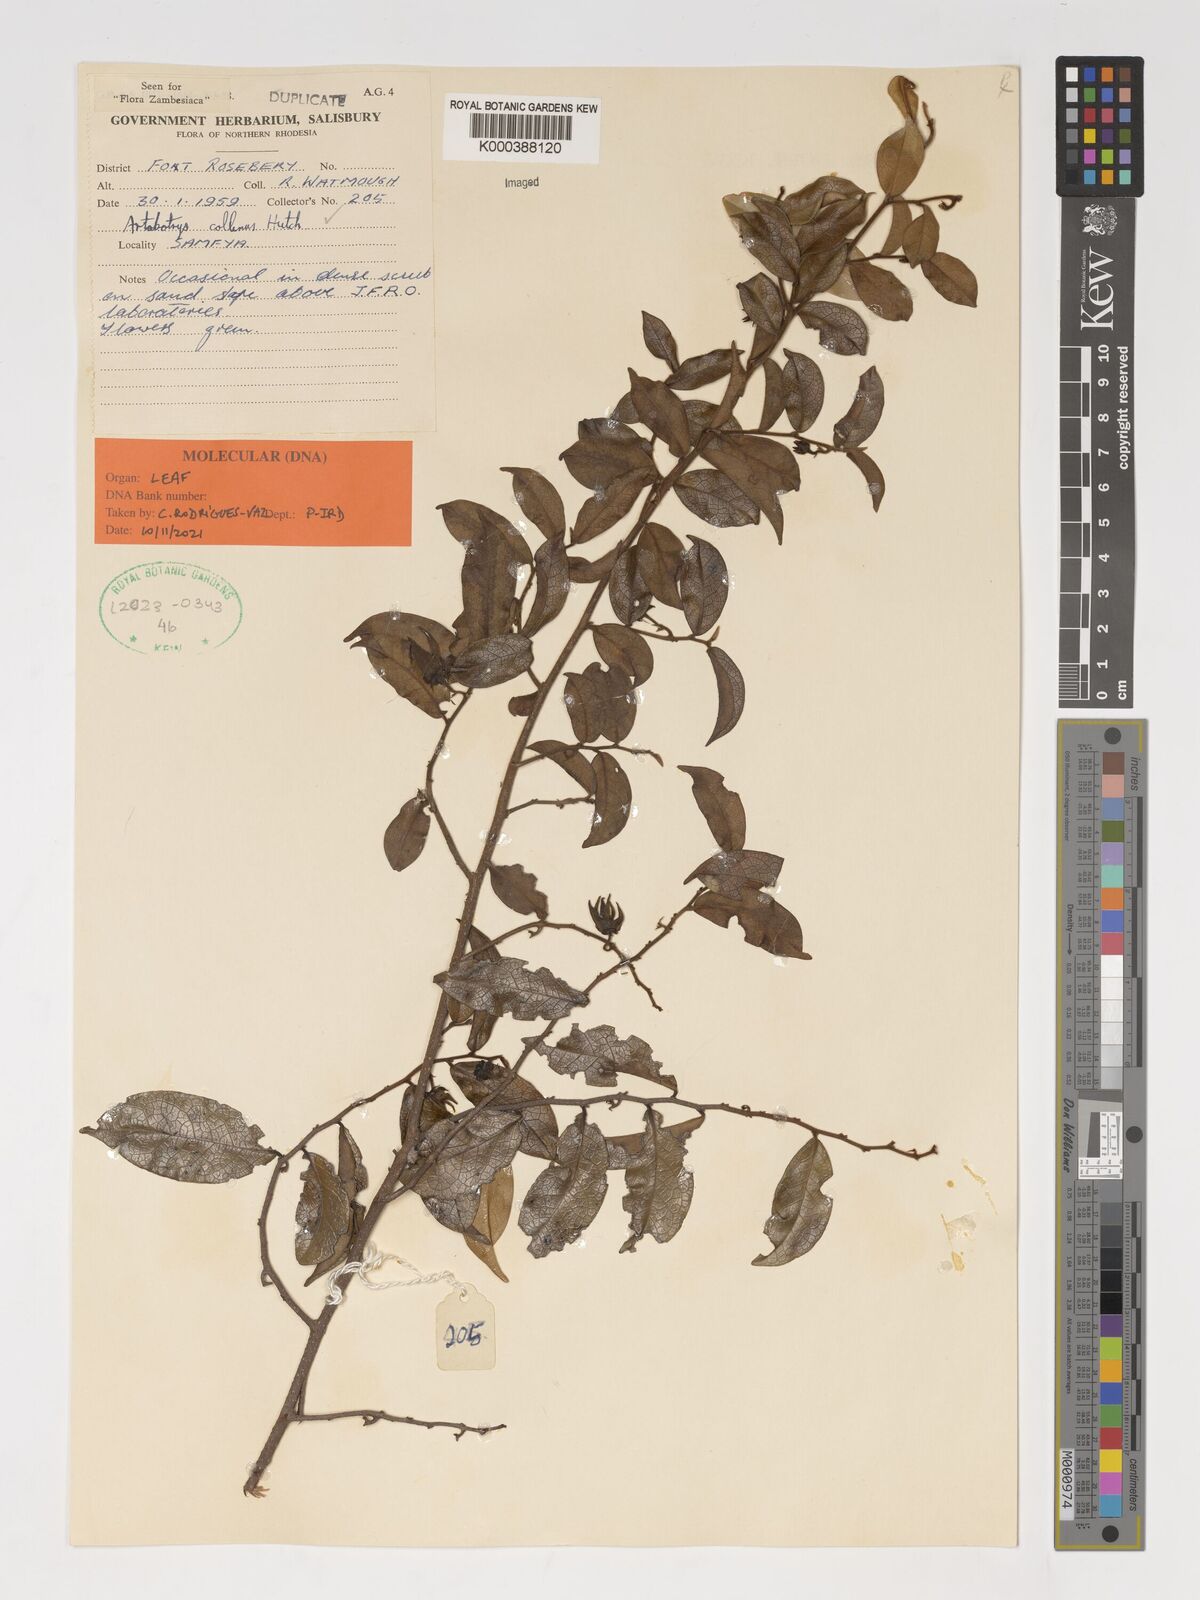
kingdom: Plantae
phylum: Tracheophyta
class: Magnoliopsida
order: Magnoliales
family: Annonaceae
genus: Artabotrys
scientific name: Artabotrys collinus
